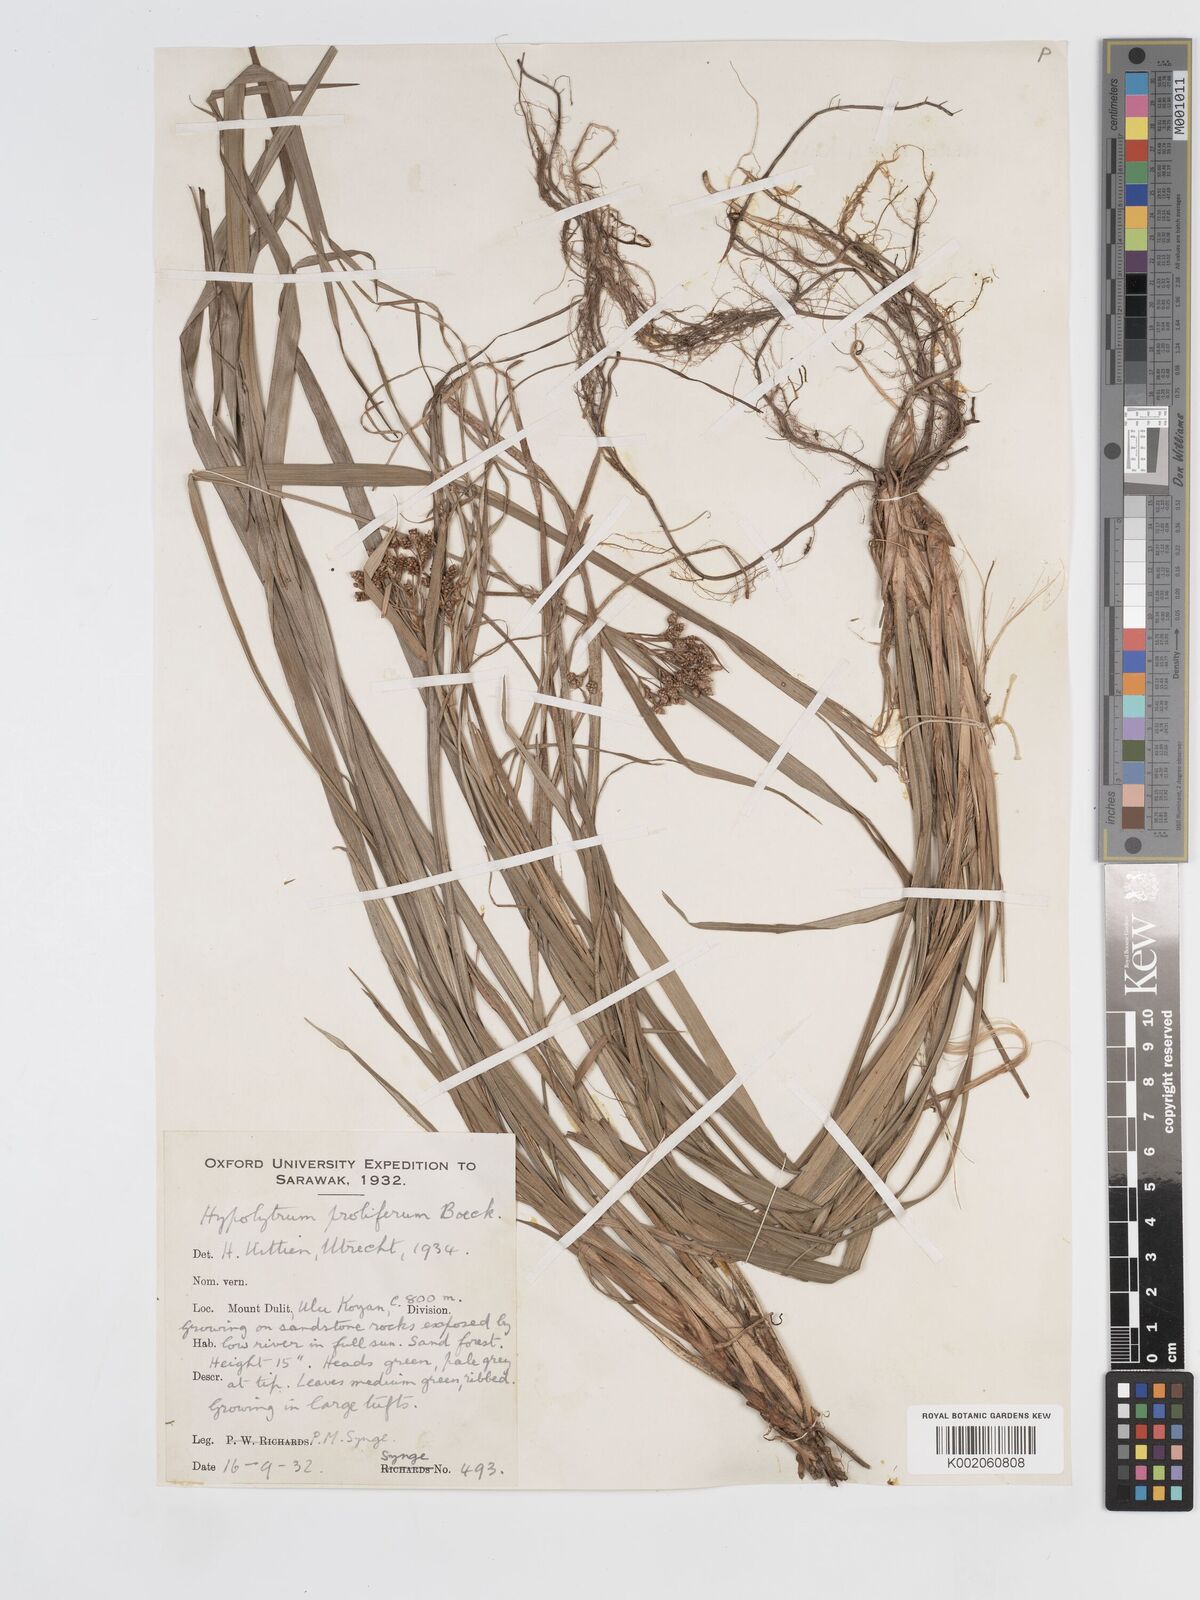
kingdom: Plantae
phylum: Tracheophyta
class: Liliopsida
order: Poales
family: Cyperaceae
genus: Hypolytrum
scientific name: Hypolytrum nemorum
